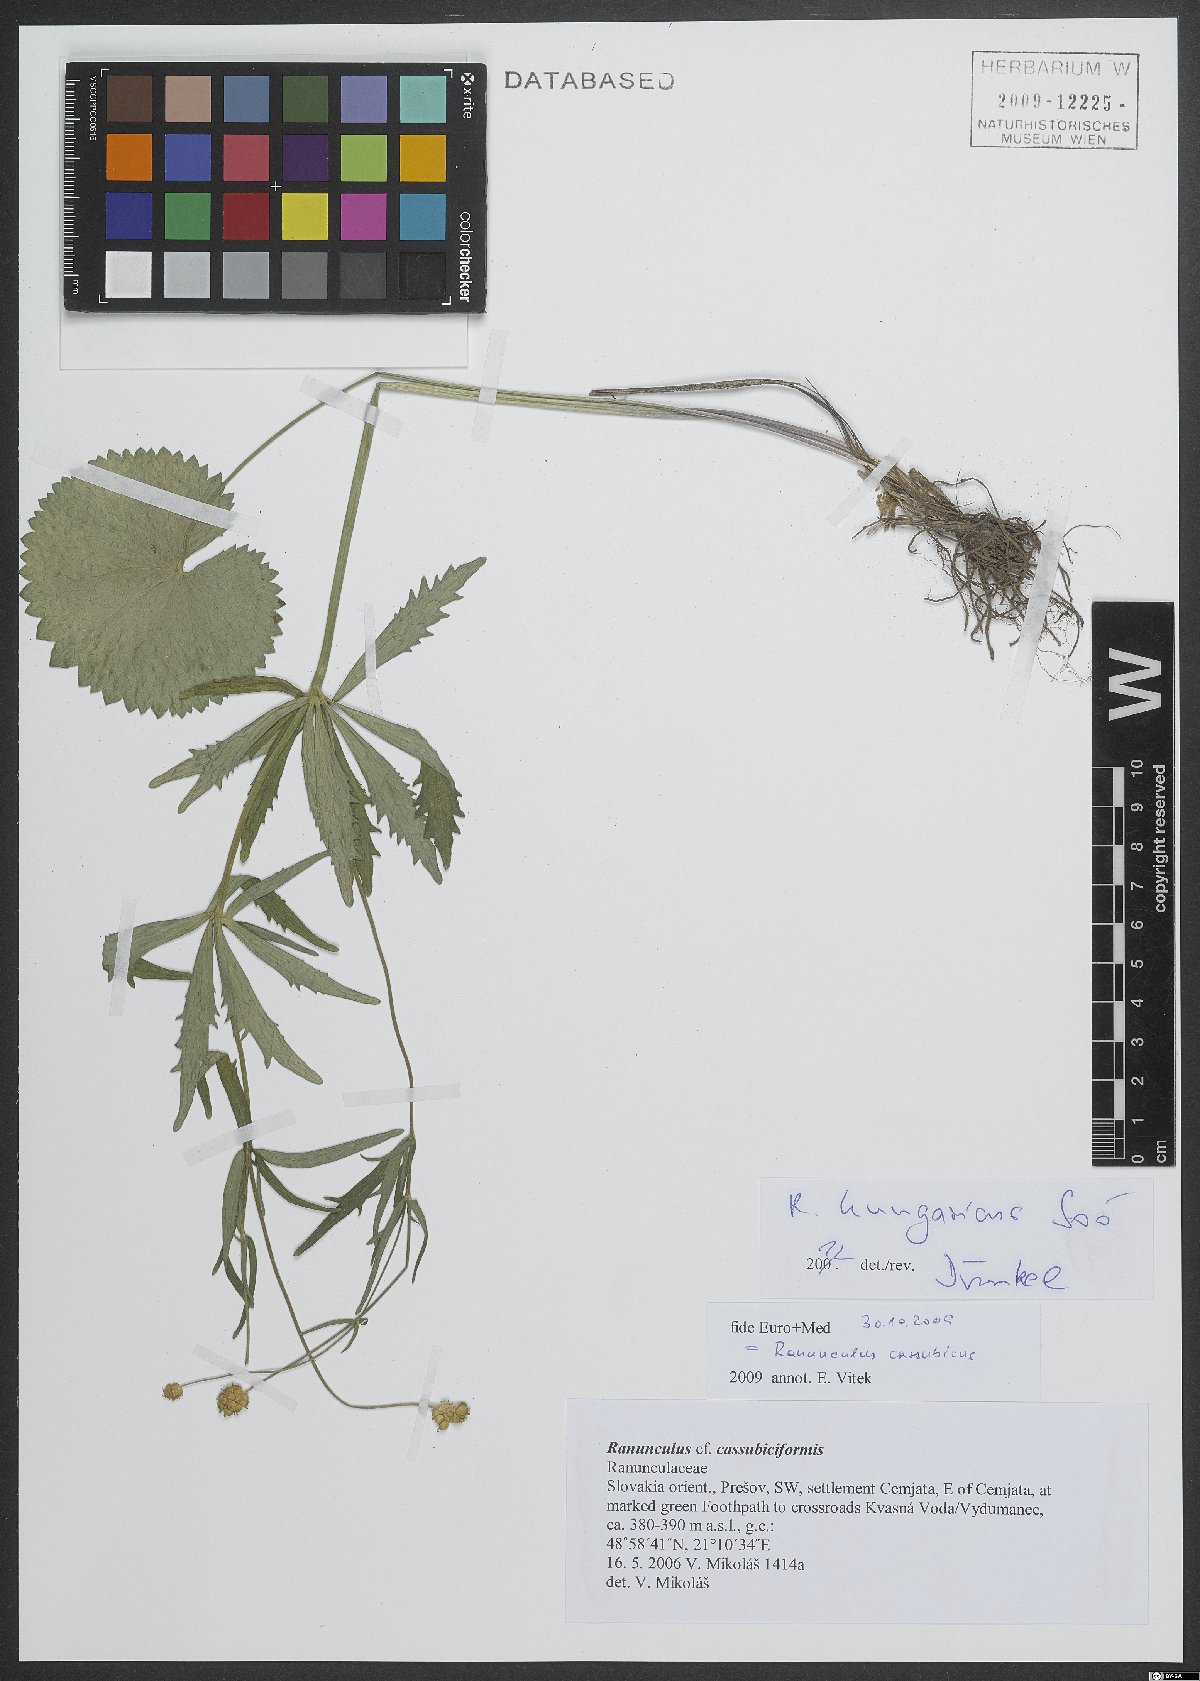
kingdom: Plantae
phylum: Tracheophyta
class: Magnoliopsida
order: Ranunculales
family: Ranunculaceae
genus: Ranunculus
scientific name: Ranunculus hungaricus
